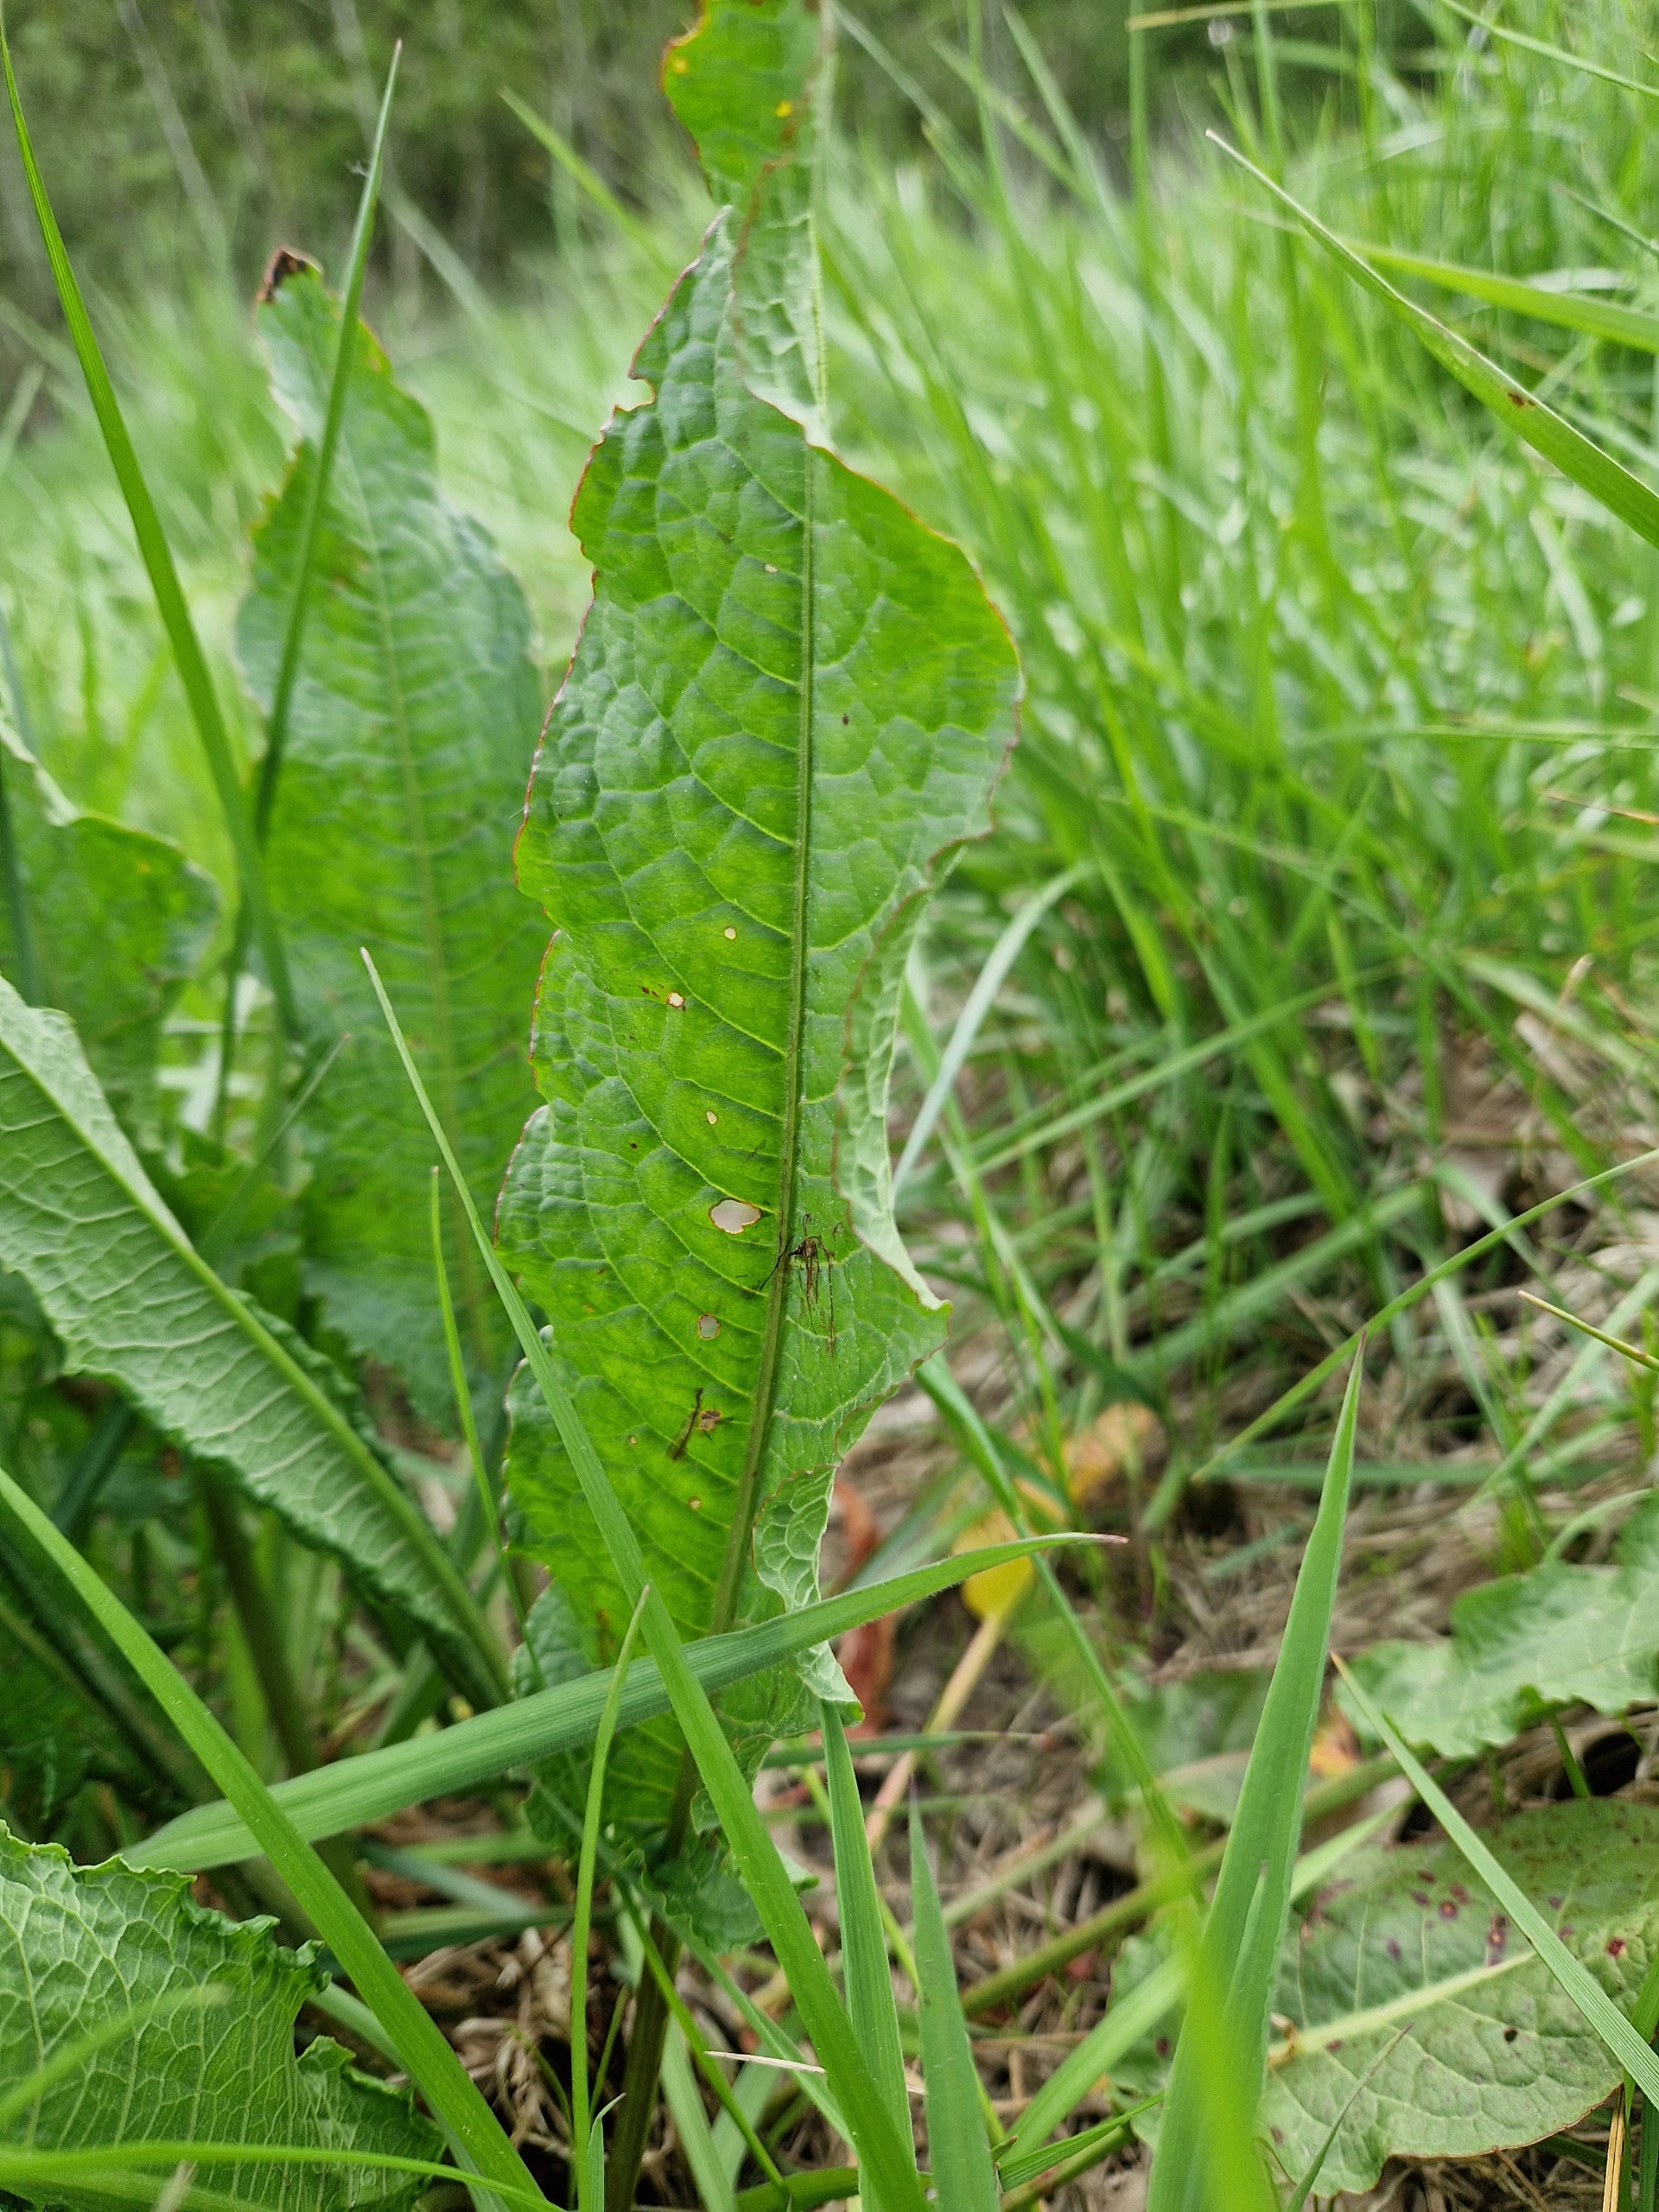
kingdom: Plantae
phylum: Tracheophyta
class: Magnoliopsida
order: Caryophyllales
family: Polygonaceae
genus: Rumex
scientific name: Rumex crispus
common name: Kruset skræppe
